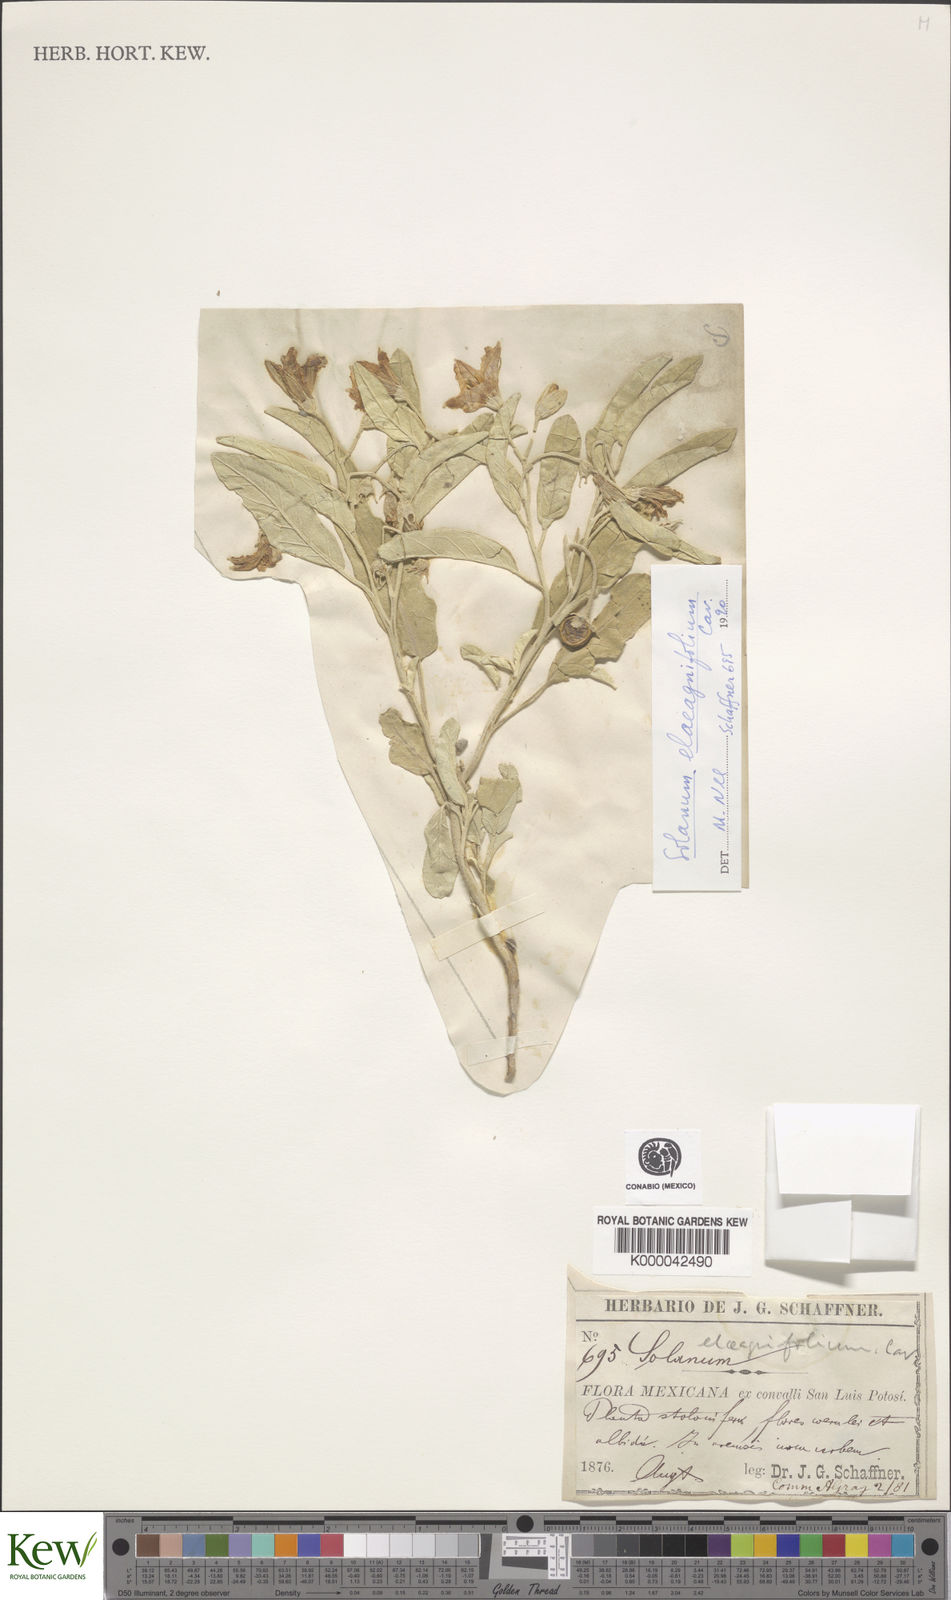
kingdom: Plantae
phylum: Tracheophyta
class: Magnoliopsida
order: Solanales
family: Solanaceae
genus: Solanum
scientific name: Solanum elaeagnifolium
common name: Silverleaf nightshade
